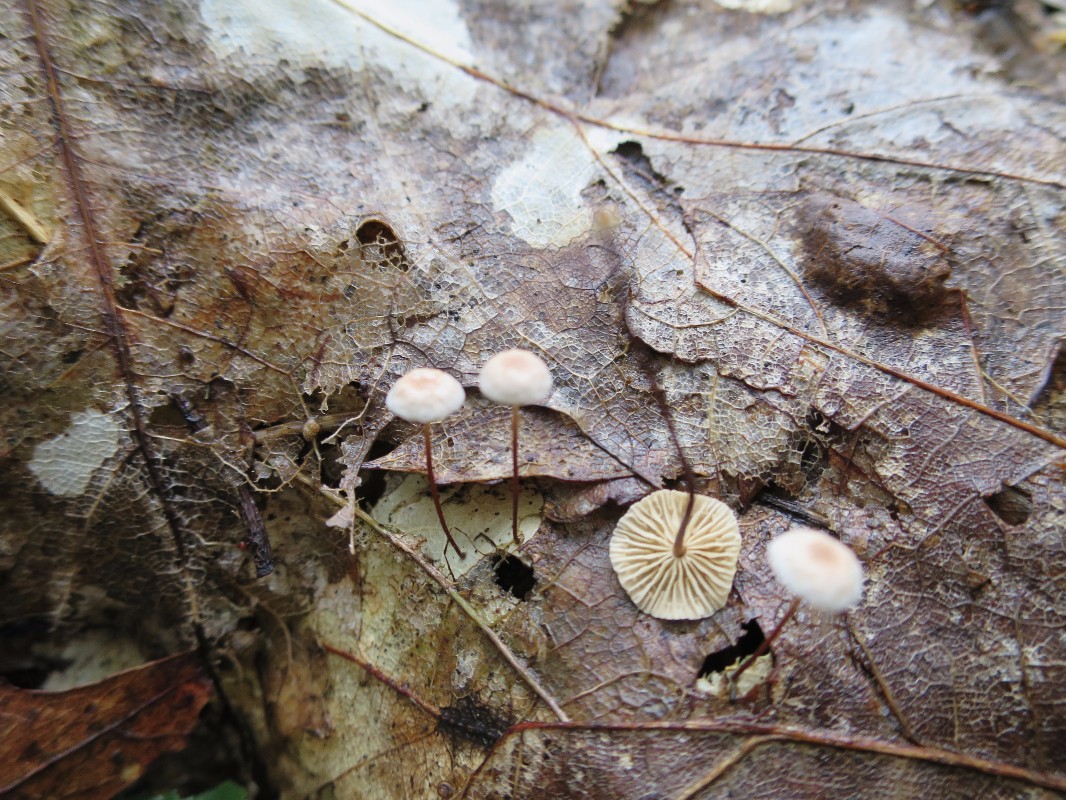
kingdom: Fungi
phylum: Basidiomycota
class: Agaricomycetes
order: Agaricales
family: Omphalotaceae
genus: Collybiopsis
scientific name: Collybiopsis quercophila
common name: egeblads-bruskhat
